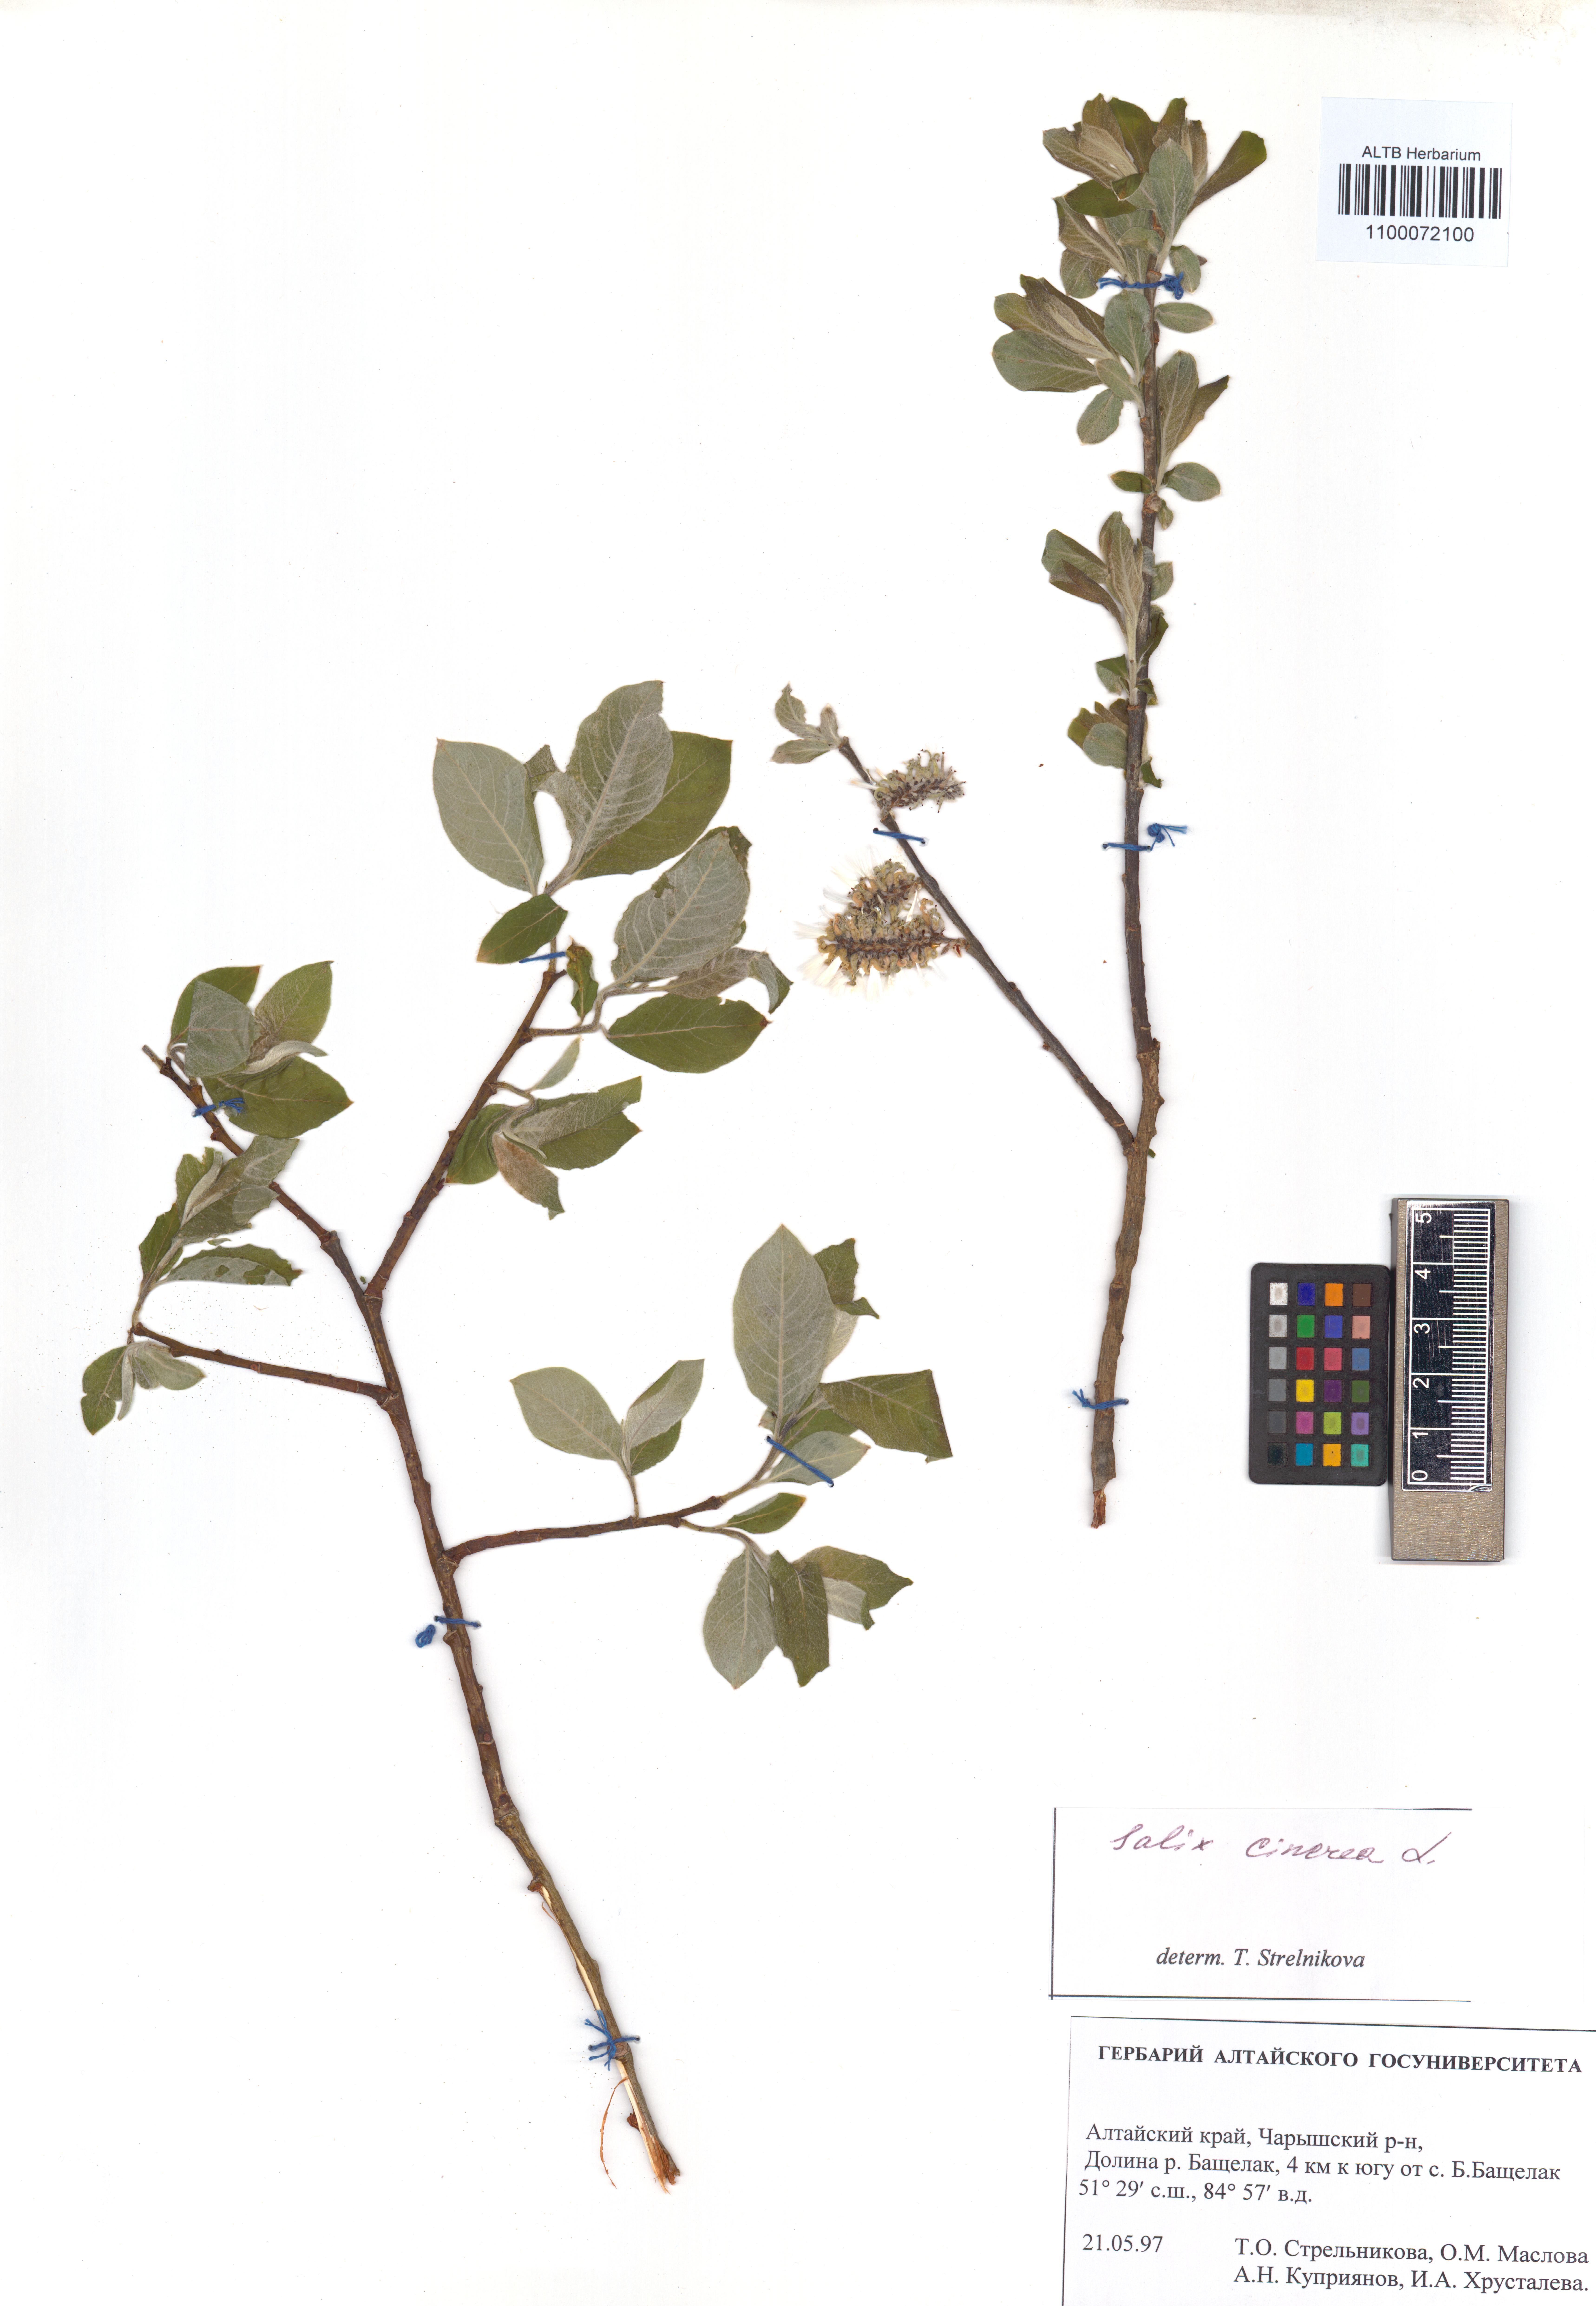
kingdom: Plantae
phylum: Tracheophyta
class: Magnoliopsida
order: Malpighiales
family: Salicaceae
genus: Salix
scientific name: Salix cinerea
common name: Common sallow
